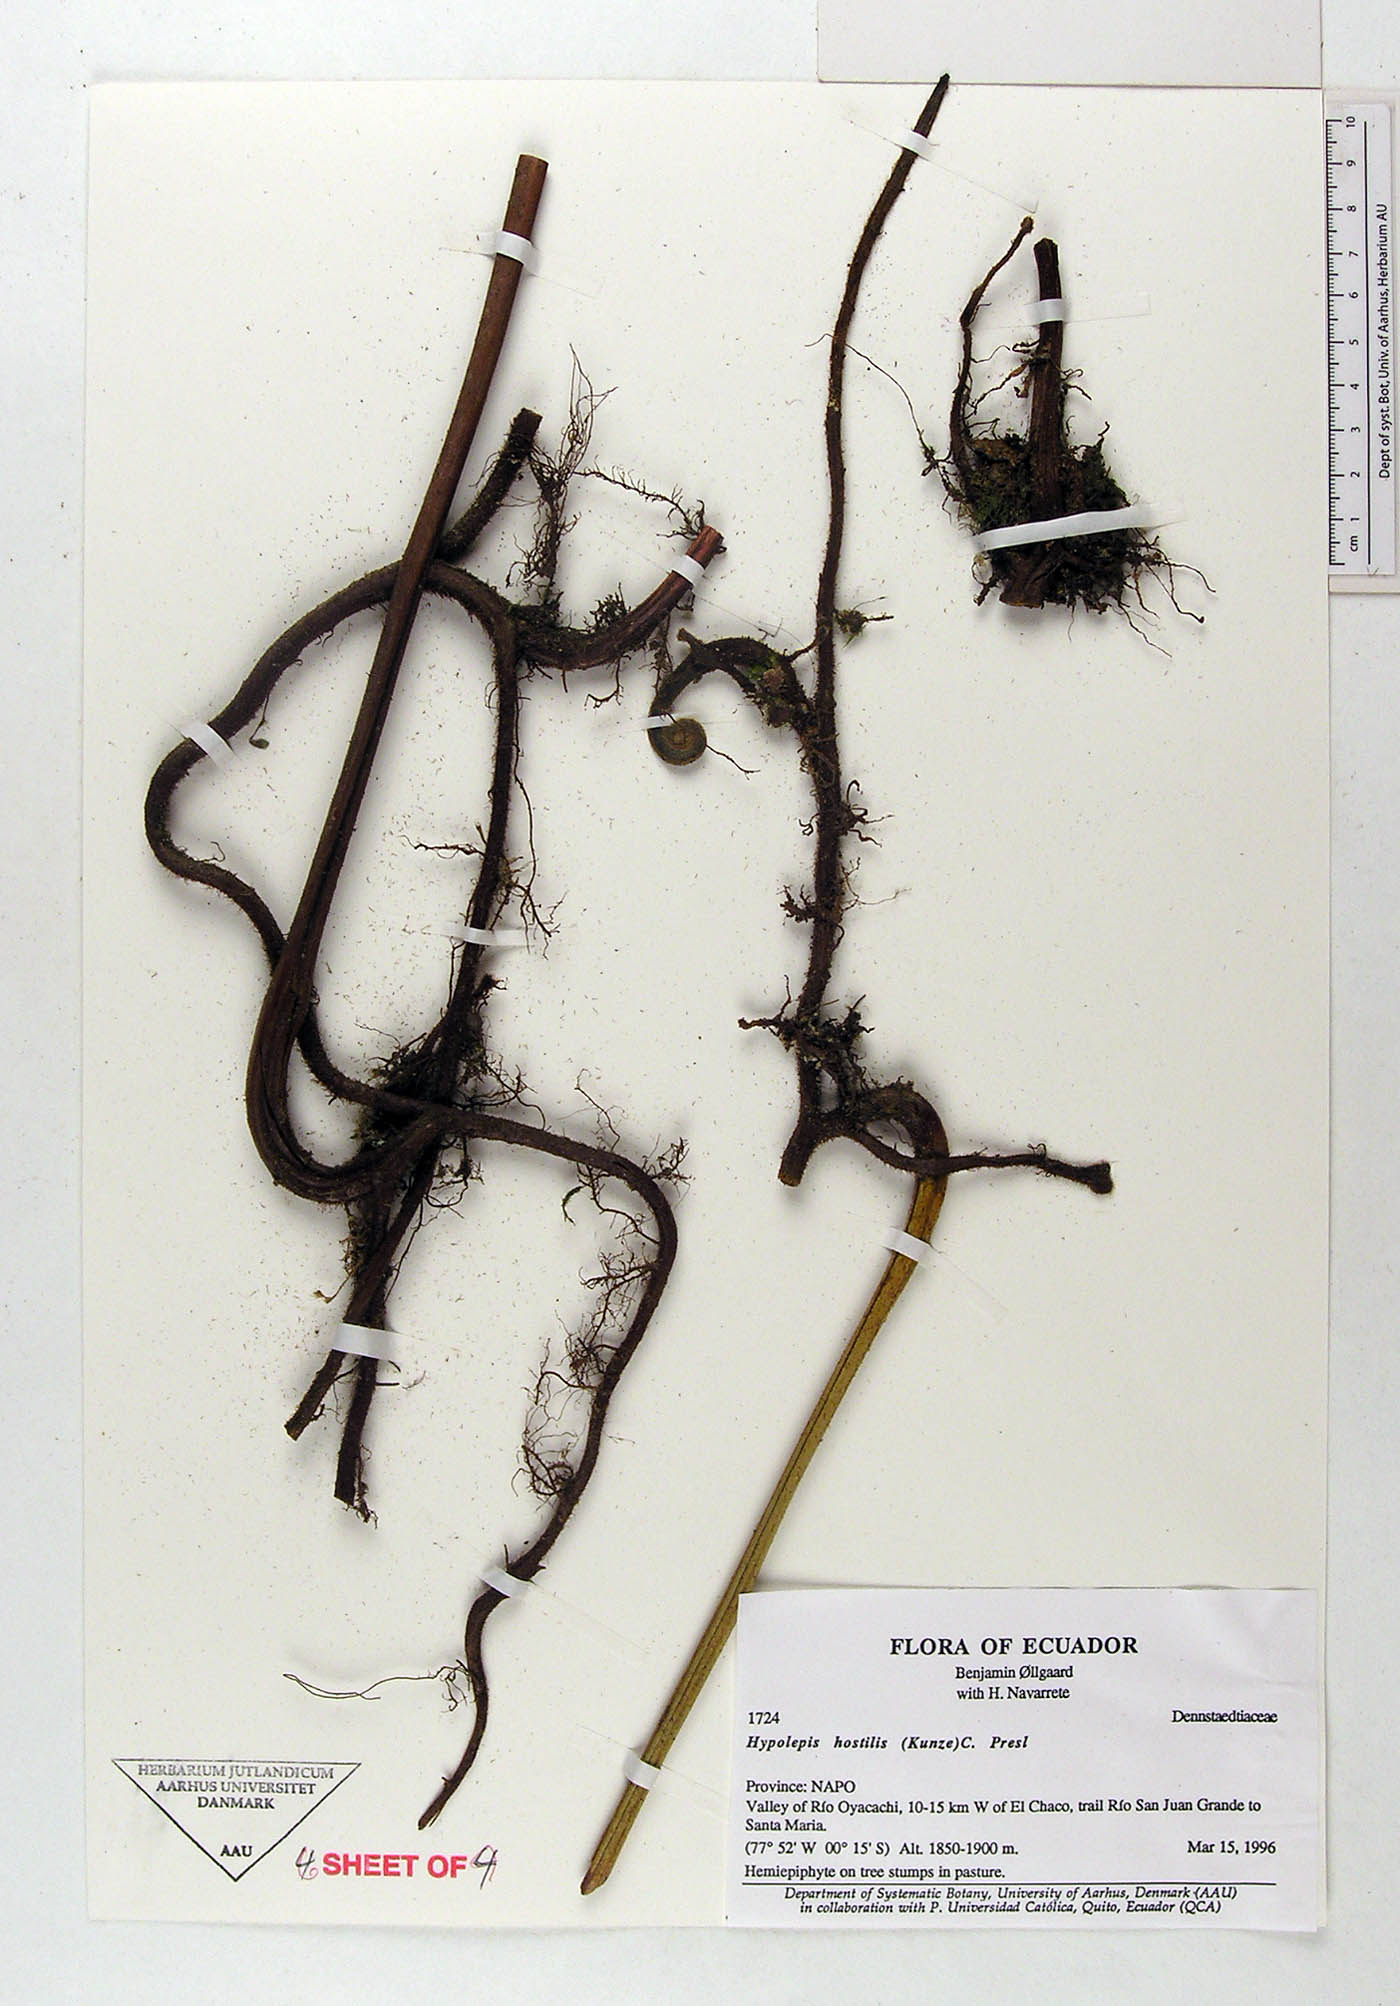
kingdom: Plantae
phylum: Tracheophyta
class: Polypodiopsida
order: Polypodiales
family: Dennstaedtiaceae
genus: Hypolepis
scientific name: Hypolepis hostilis
